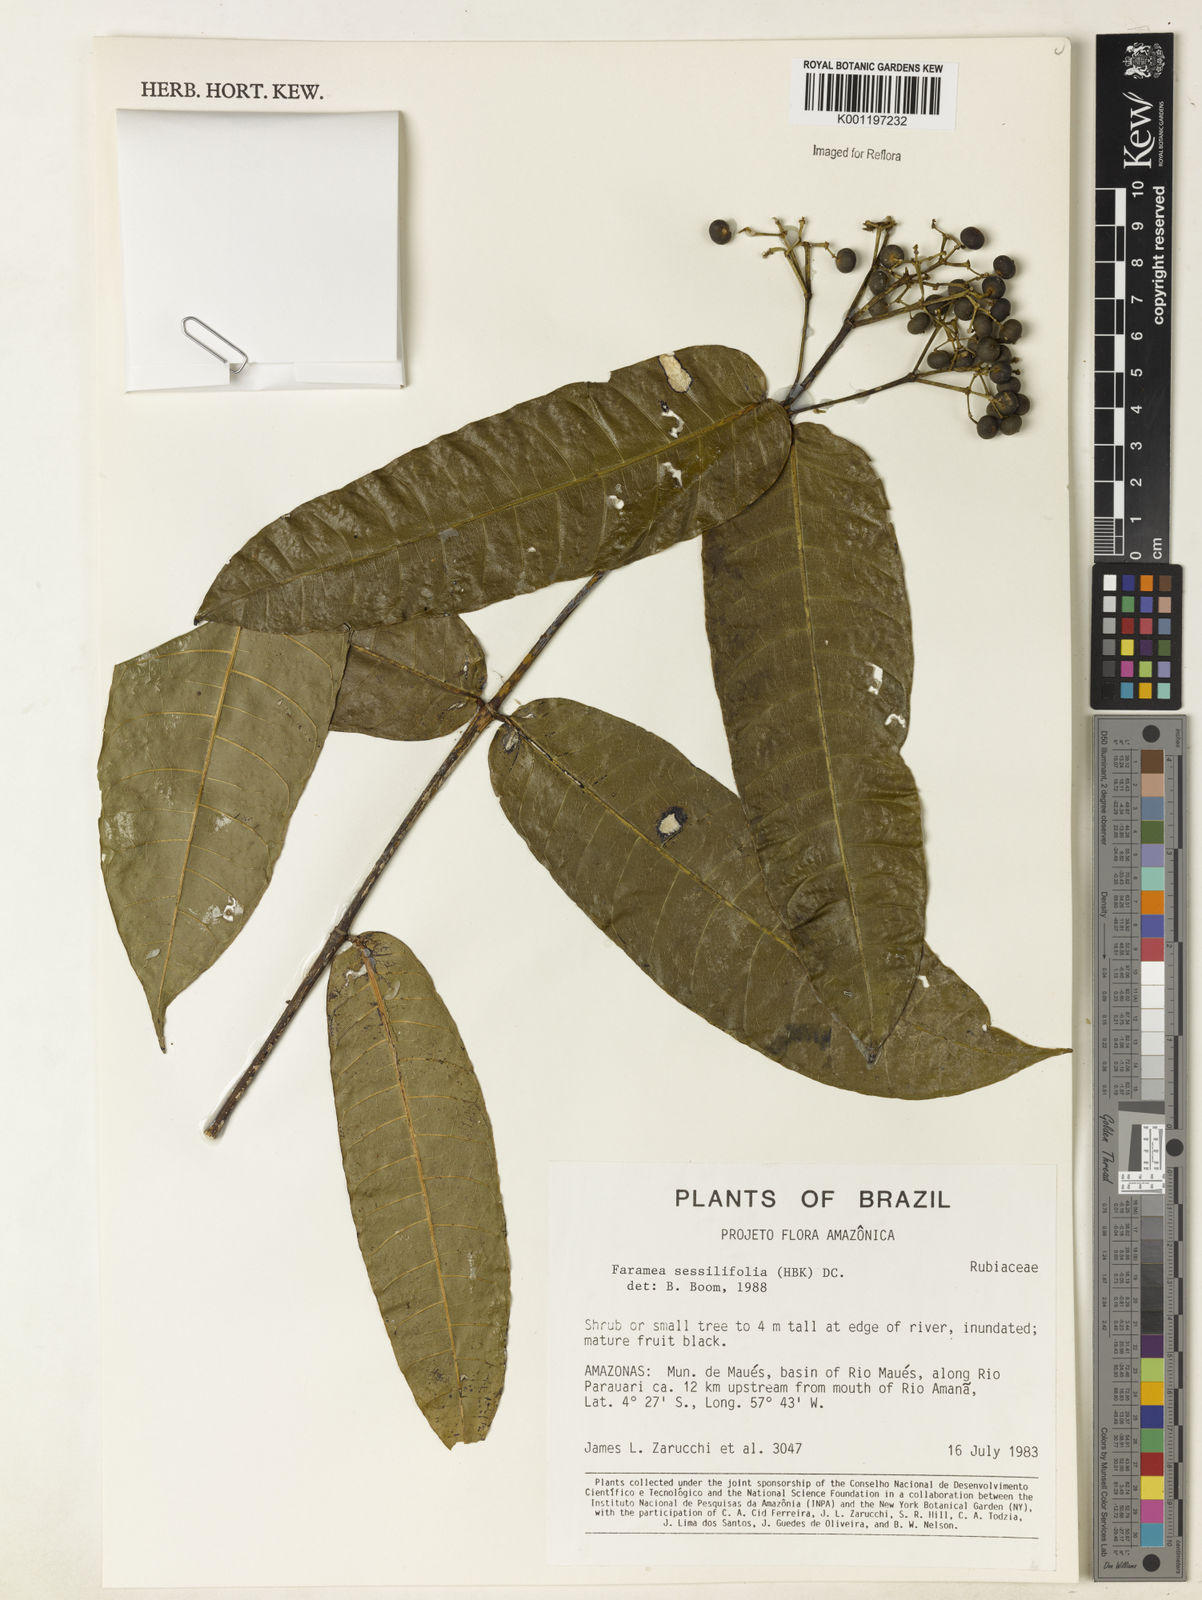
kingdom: Plantae
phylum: Tracheophyta
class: Magnoliopsida
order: Gentianales
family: Rubiaceae
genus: Faramea
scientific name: Faramea sessilifolia
